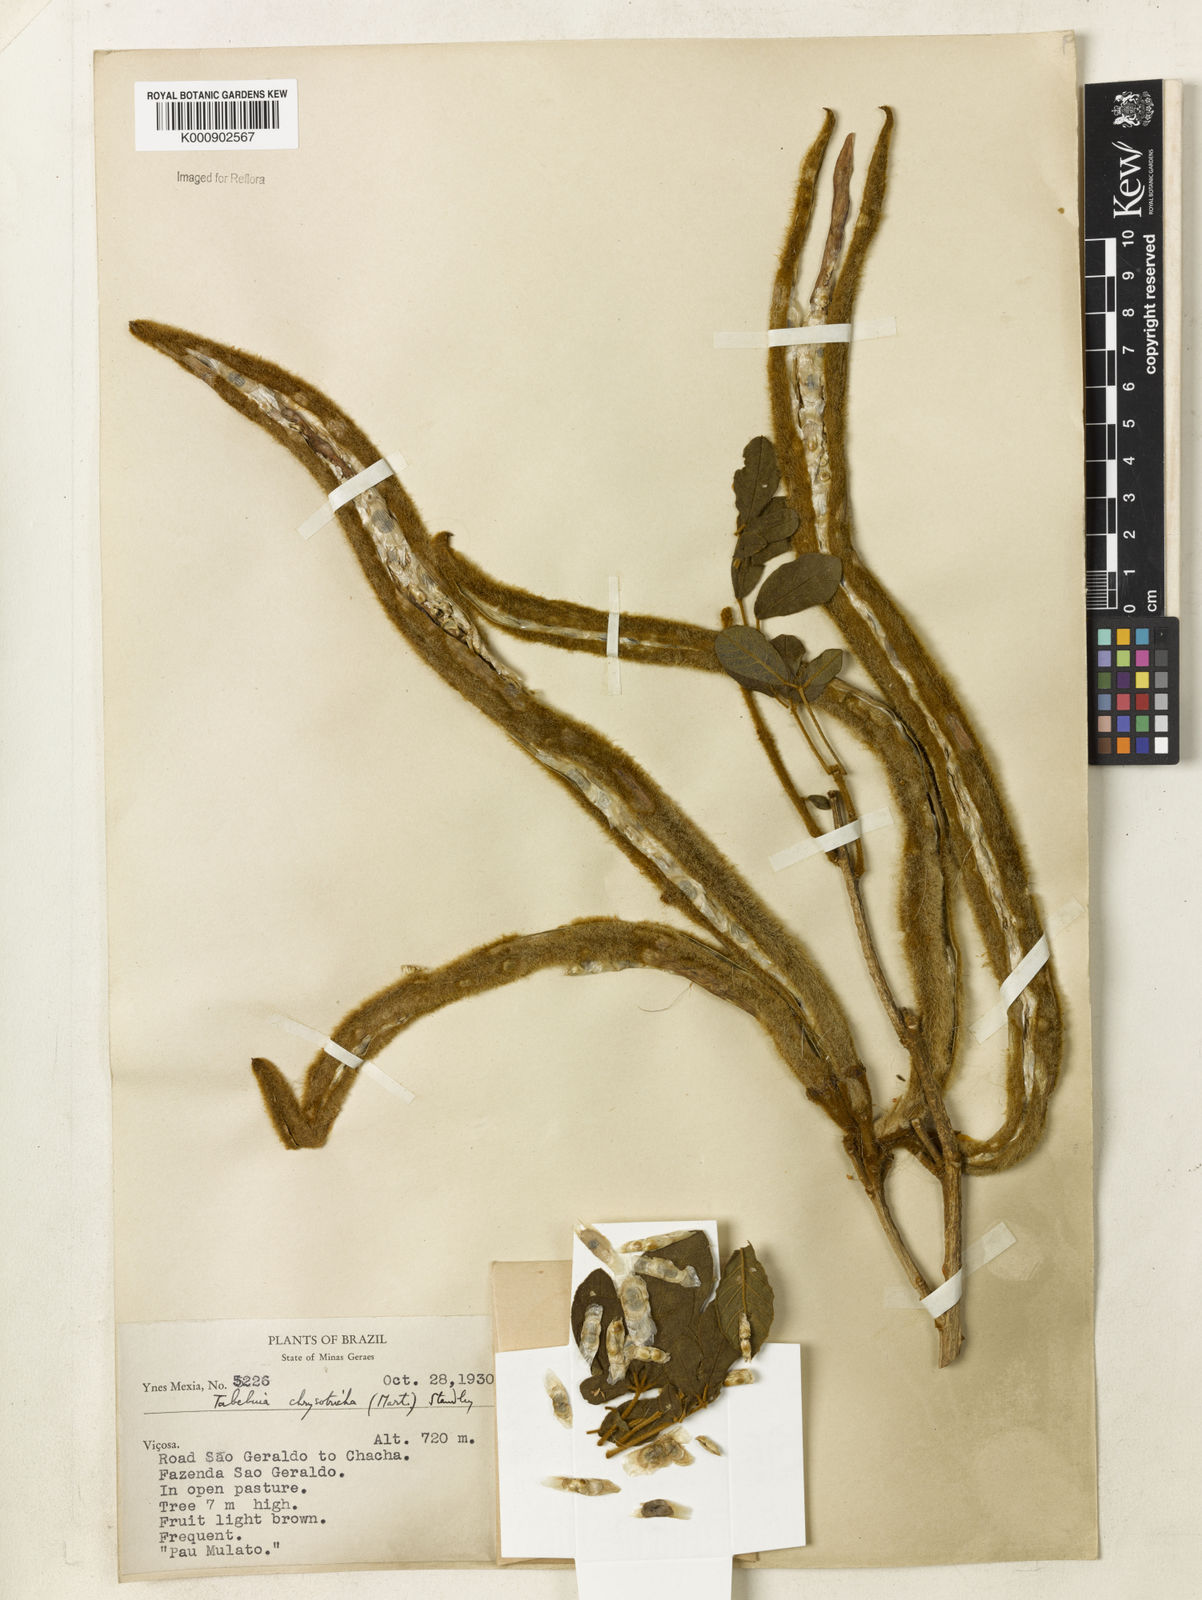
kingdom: Plantae
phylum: Tracheophyta
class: Magnoliopsida
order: Lamiales
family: Bignoniaceae
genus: Handroanthus
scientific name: Handroanthus chrysotrichus
